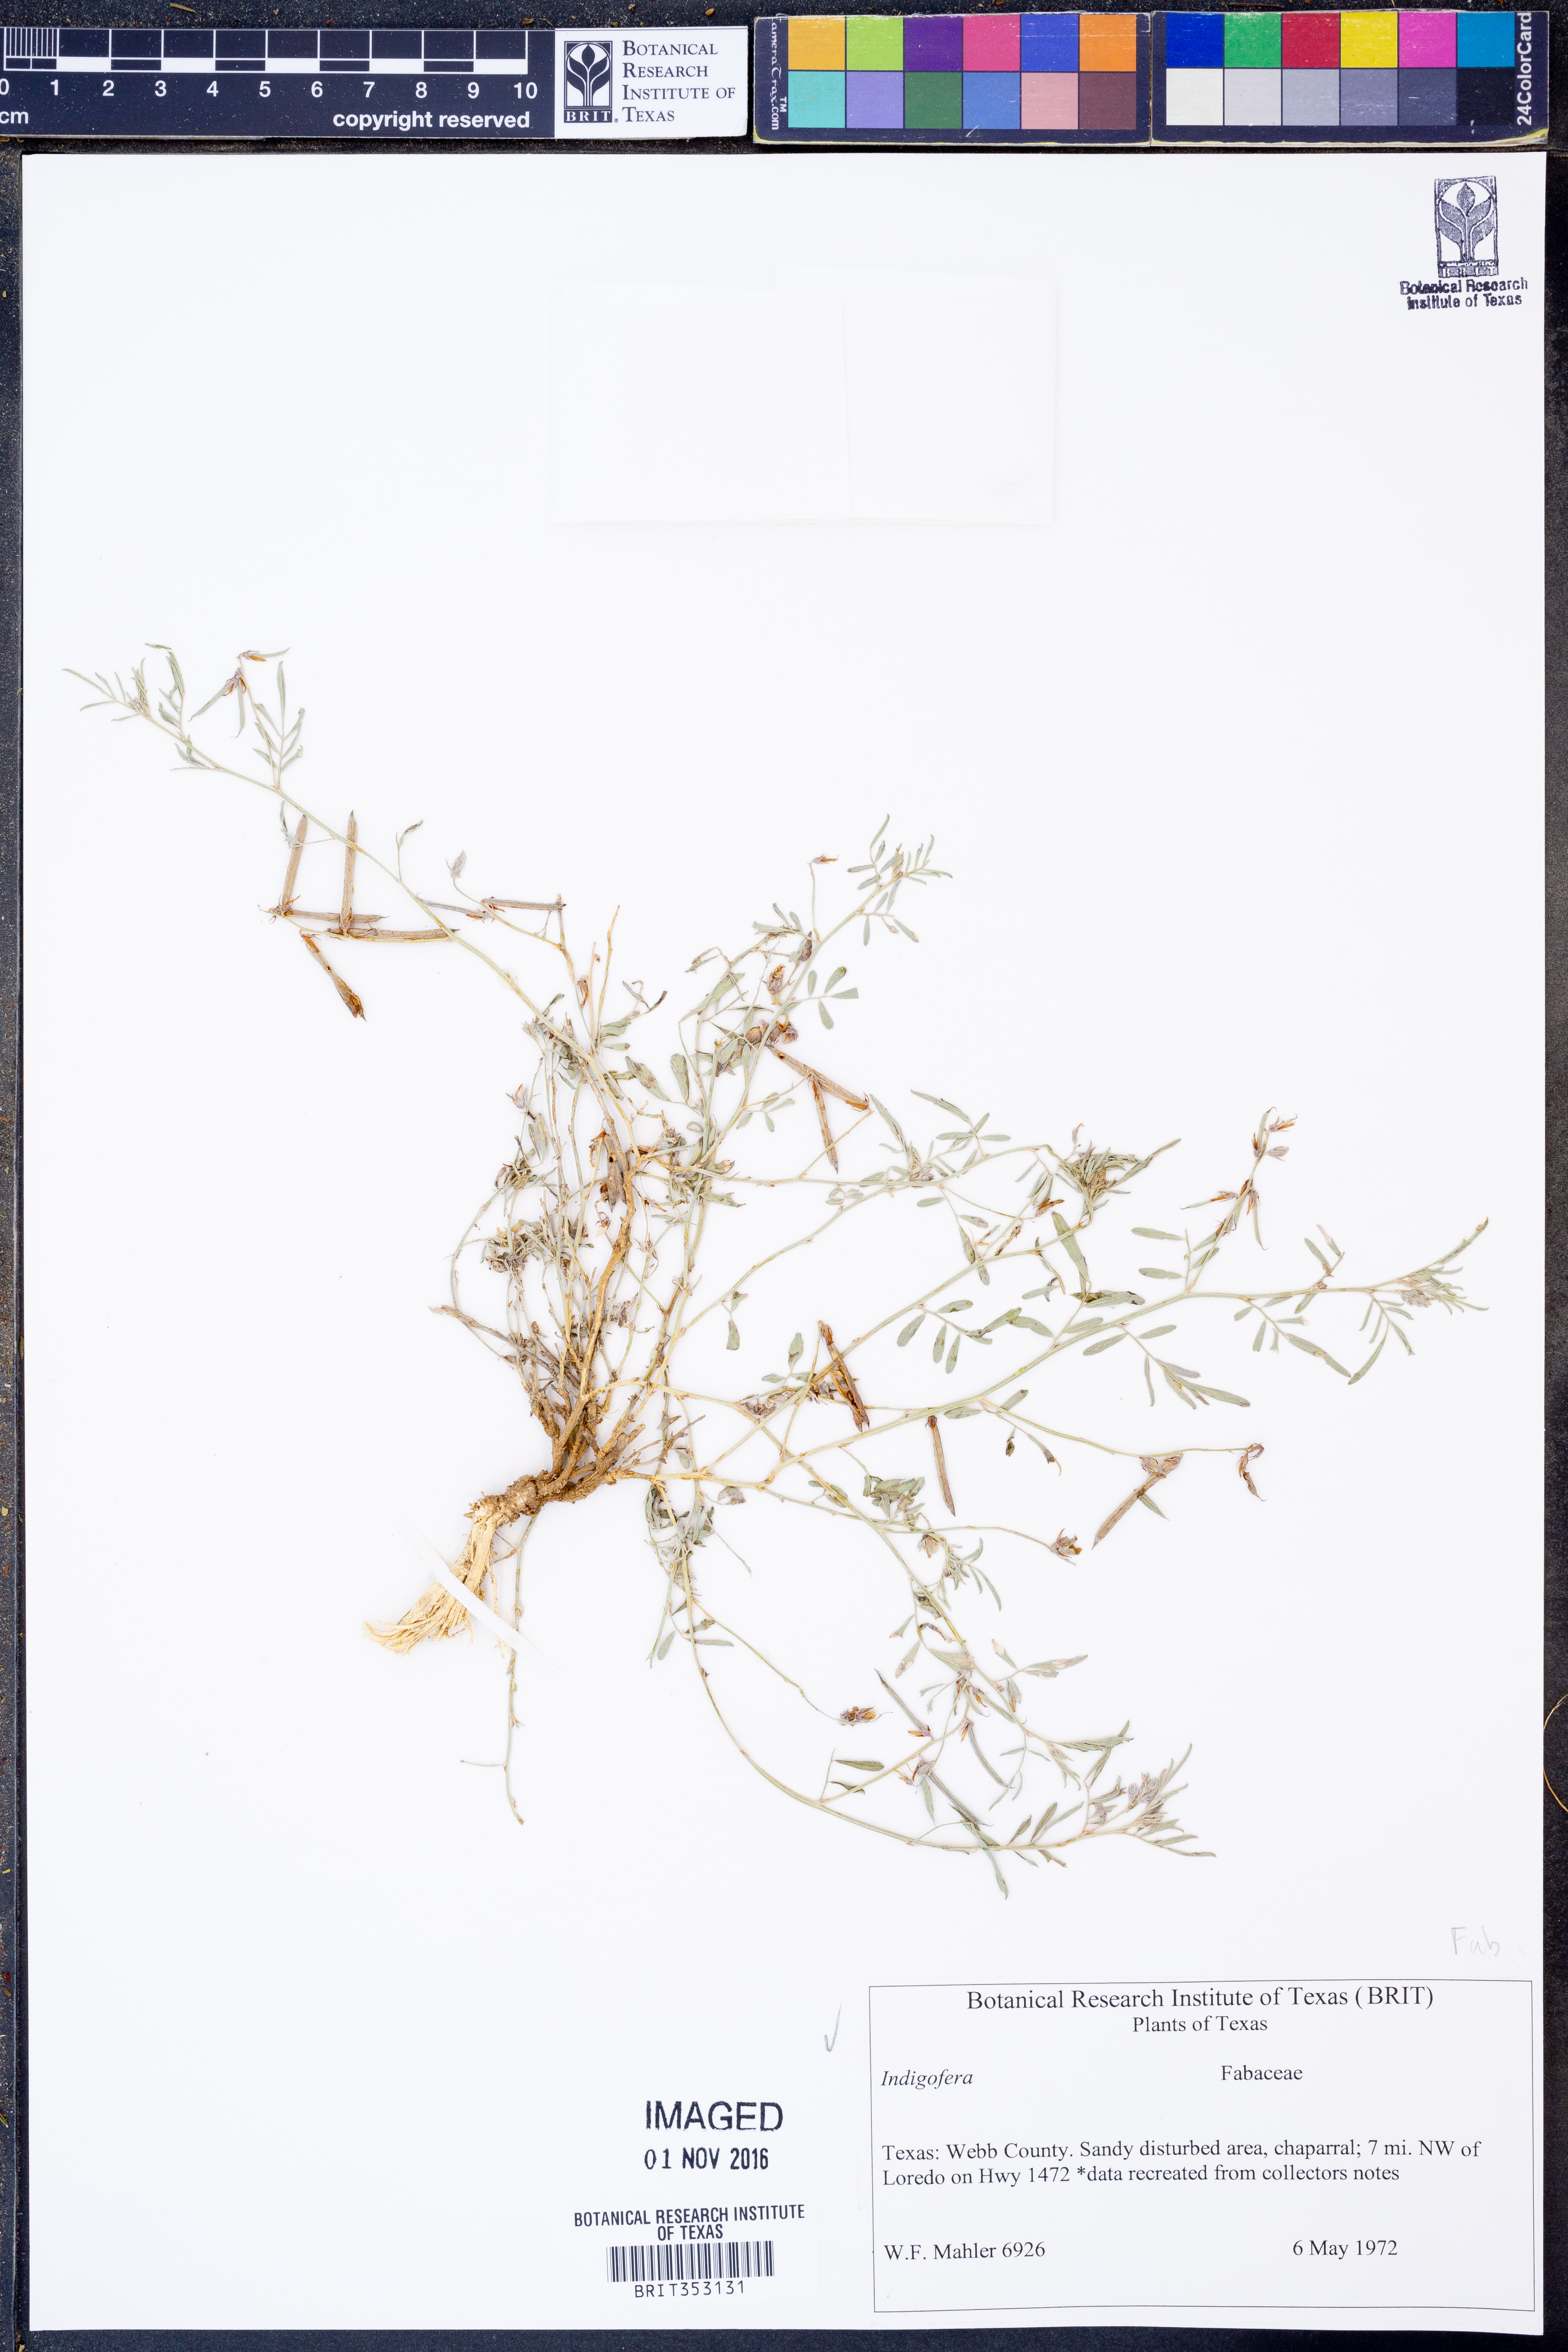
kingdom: Plantae
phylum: Tracheophyta
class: Magnoliopsida
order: Fabales
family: Fabaceae
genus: Indigofera
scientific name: Indigofera
